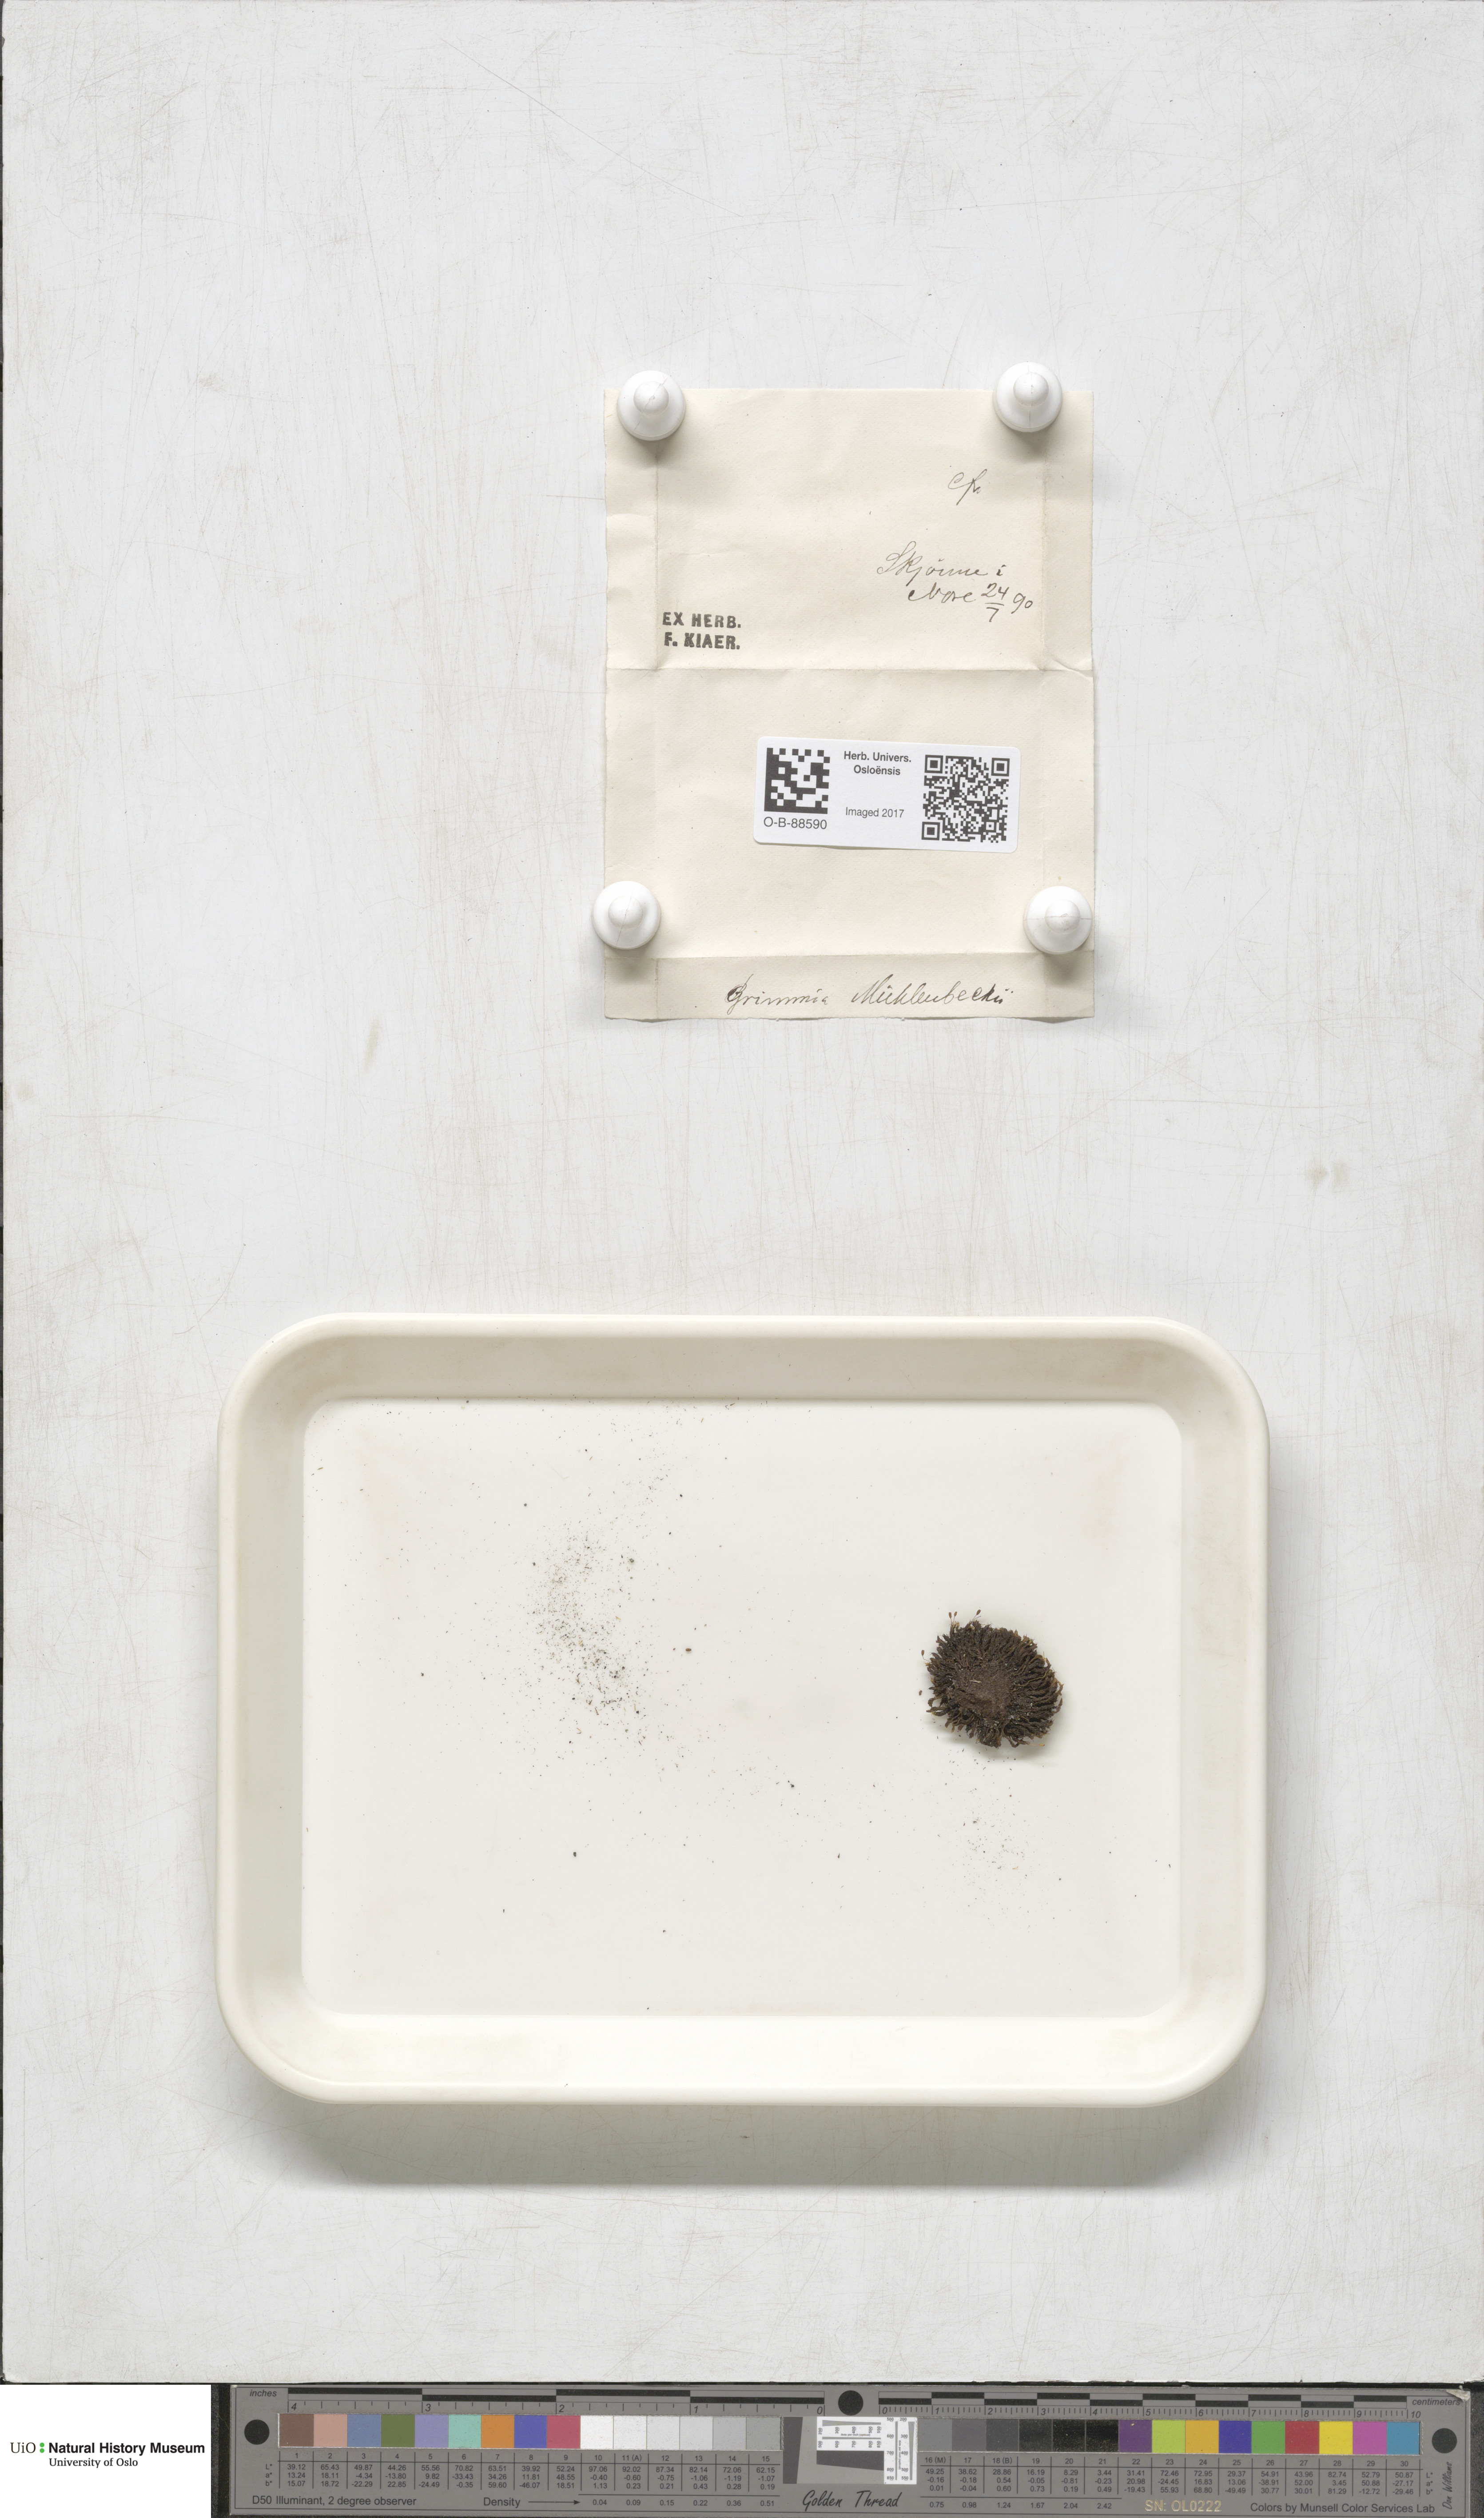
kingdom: Plantae
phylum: Bryophyta
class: Bryopsida
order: Grimmiales
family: Grimmiaceae
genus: Grimmia
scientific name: Grimmia trichophylla
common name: Hair-pointed grimmia
